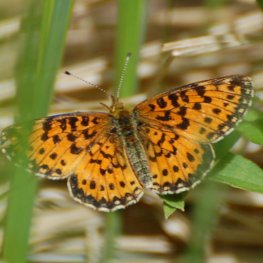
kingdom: Animalia
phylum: Arthropoda
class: Insecta
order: Lepidoptera
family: Nymphalidae
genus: Boloria
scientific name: Boloria selene
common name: Silver-bordered Fritillary
